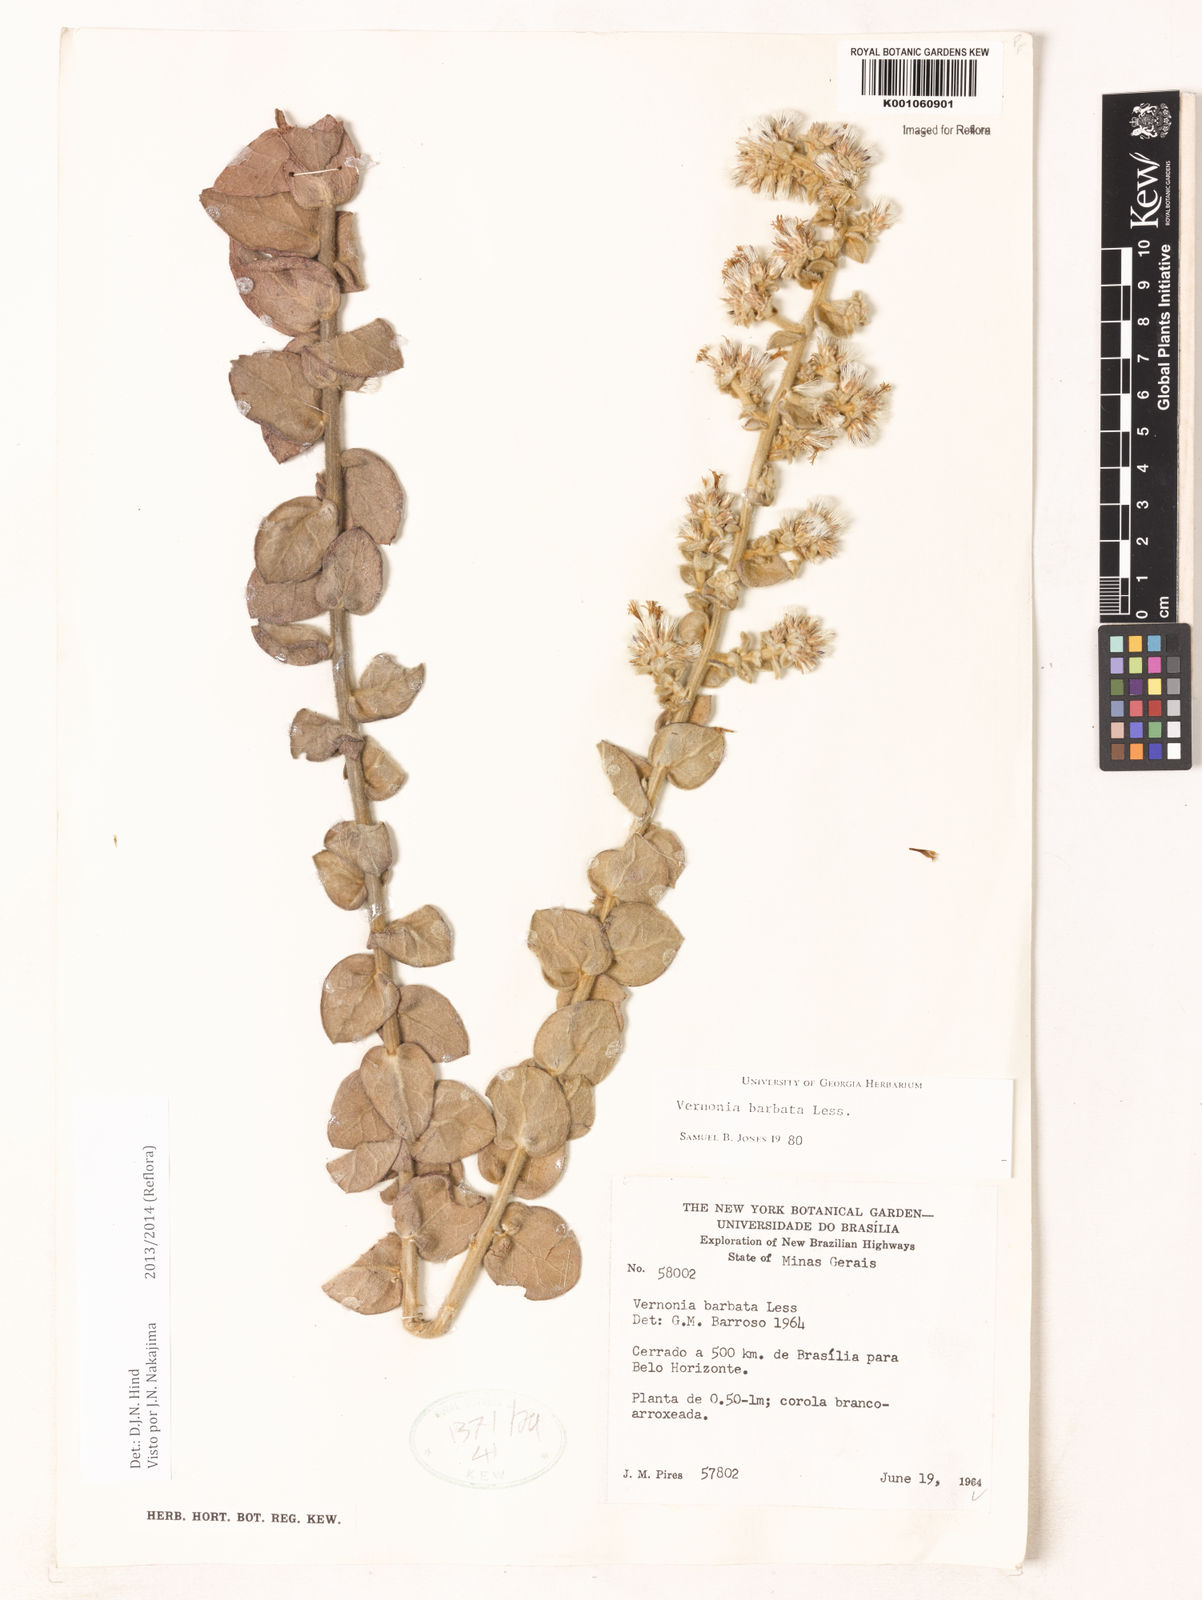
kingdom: Plantae
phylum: Tracheophyta
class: Magnoliopsida
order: Asterales
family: Asteraceae
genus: Lepidaploa
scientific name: Lepidaploa barbata
